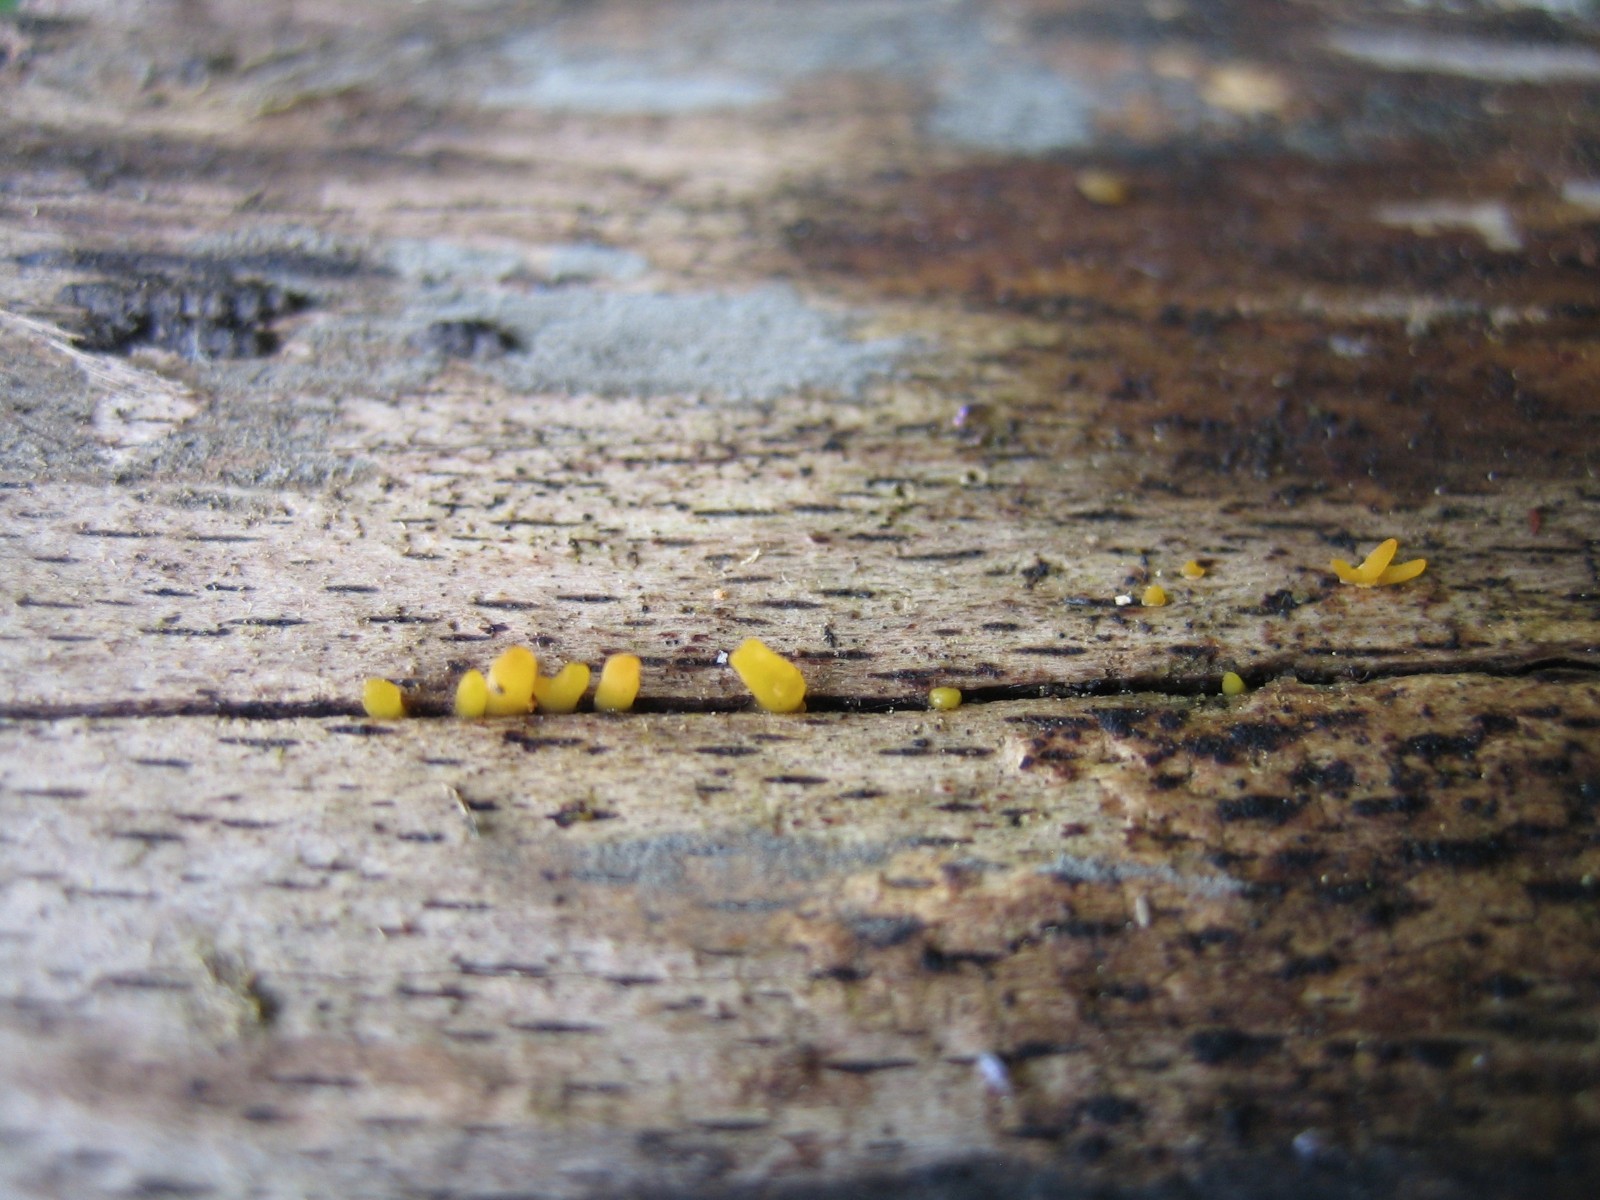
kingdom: Fungi
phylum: Basidiomycota
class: Dacrymycetes
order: Dacrymycetales
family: Dacrymycetaceae
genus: Calocera
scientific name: Calocera cornea
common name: liden guldgaffel
